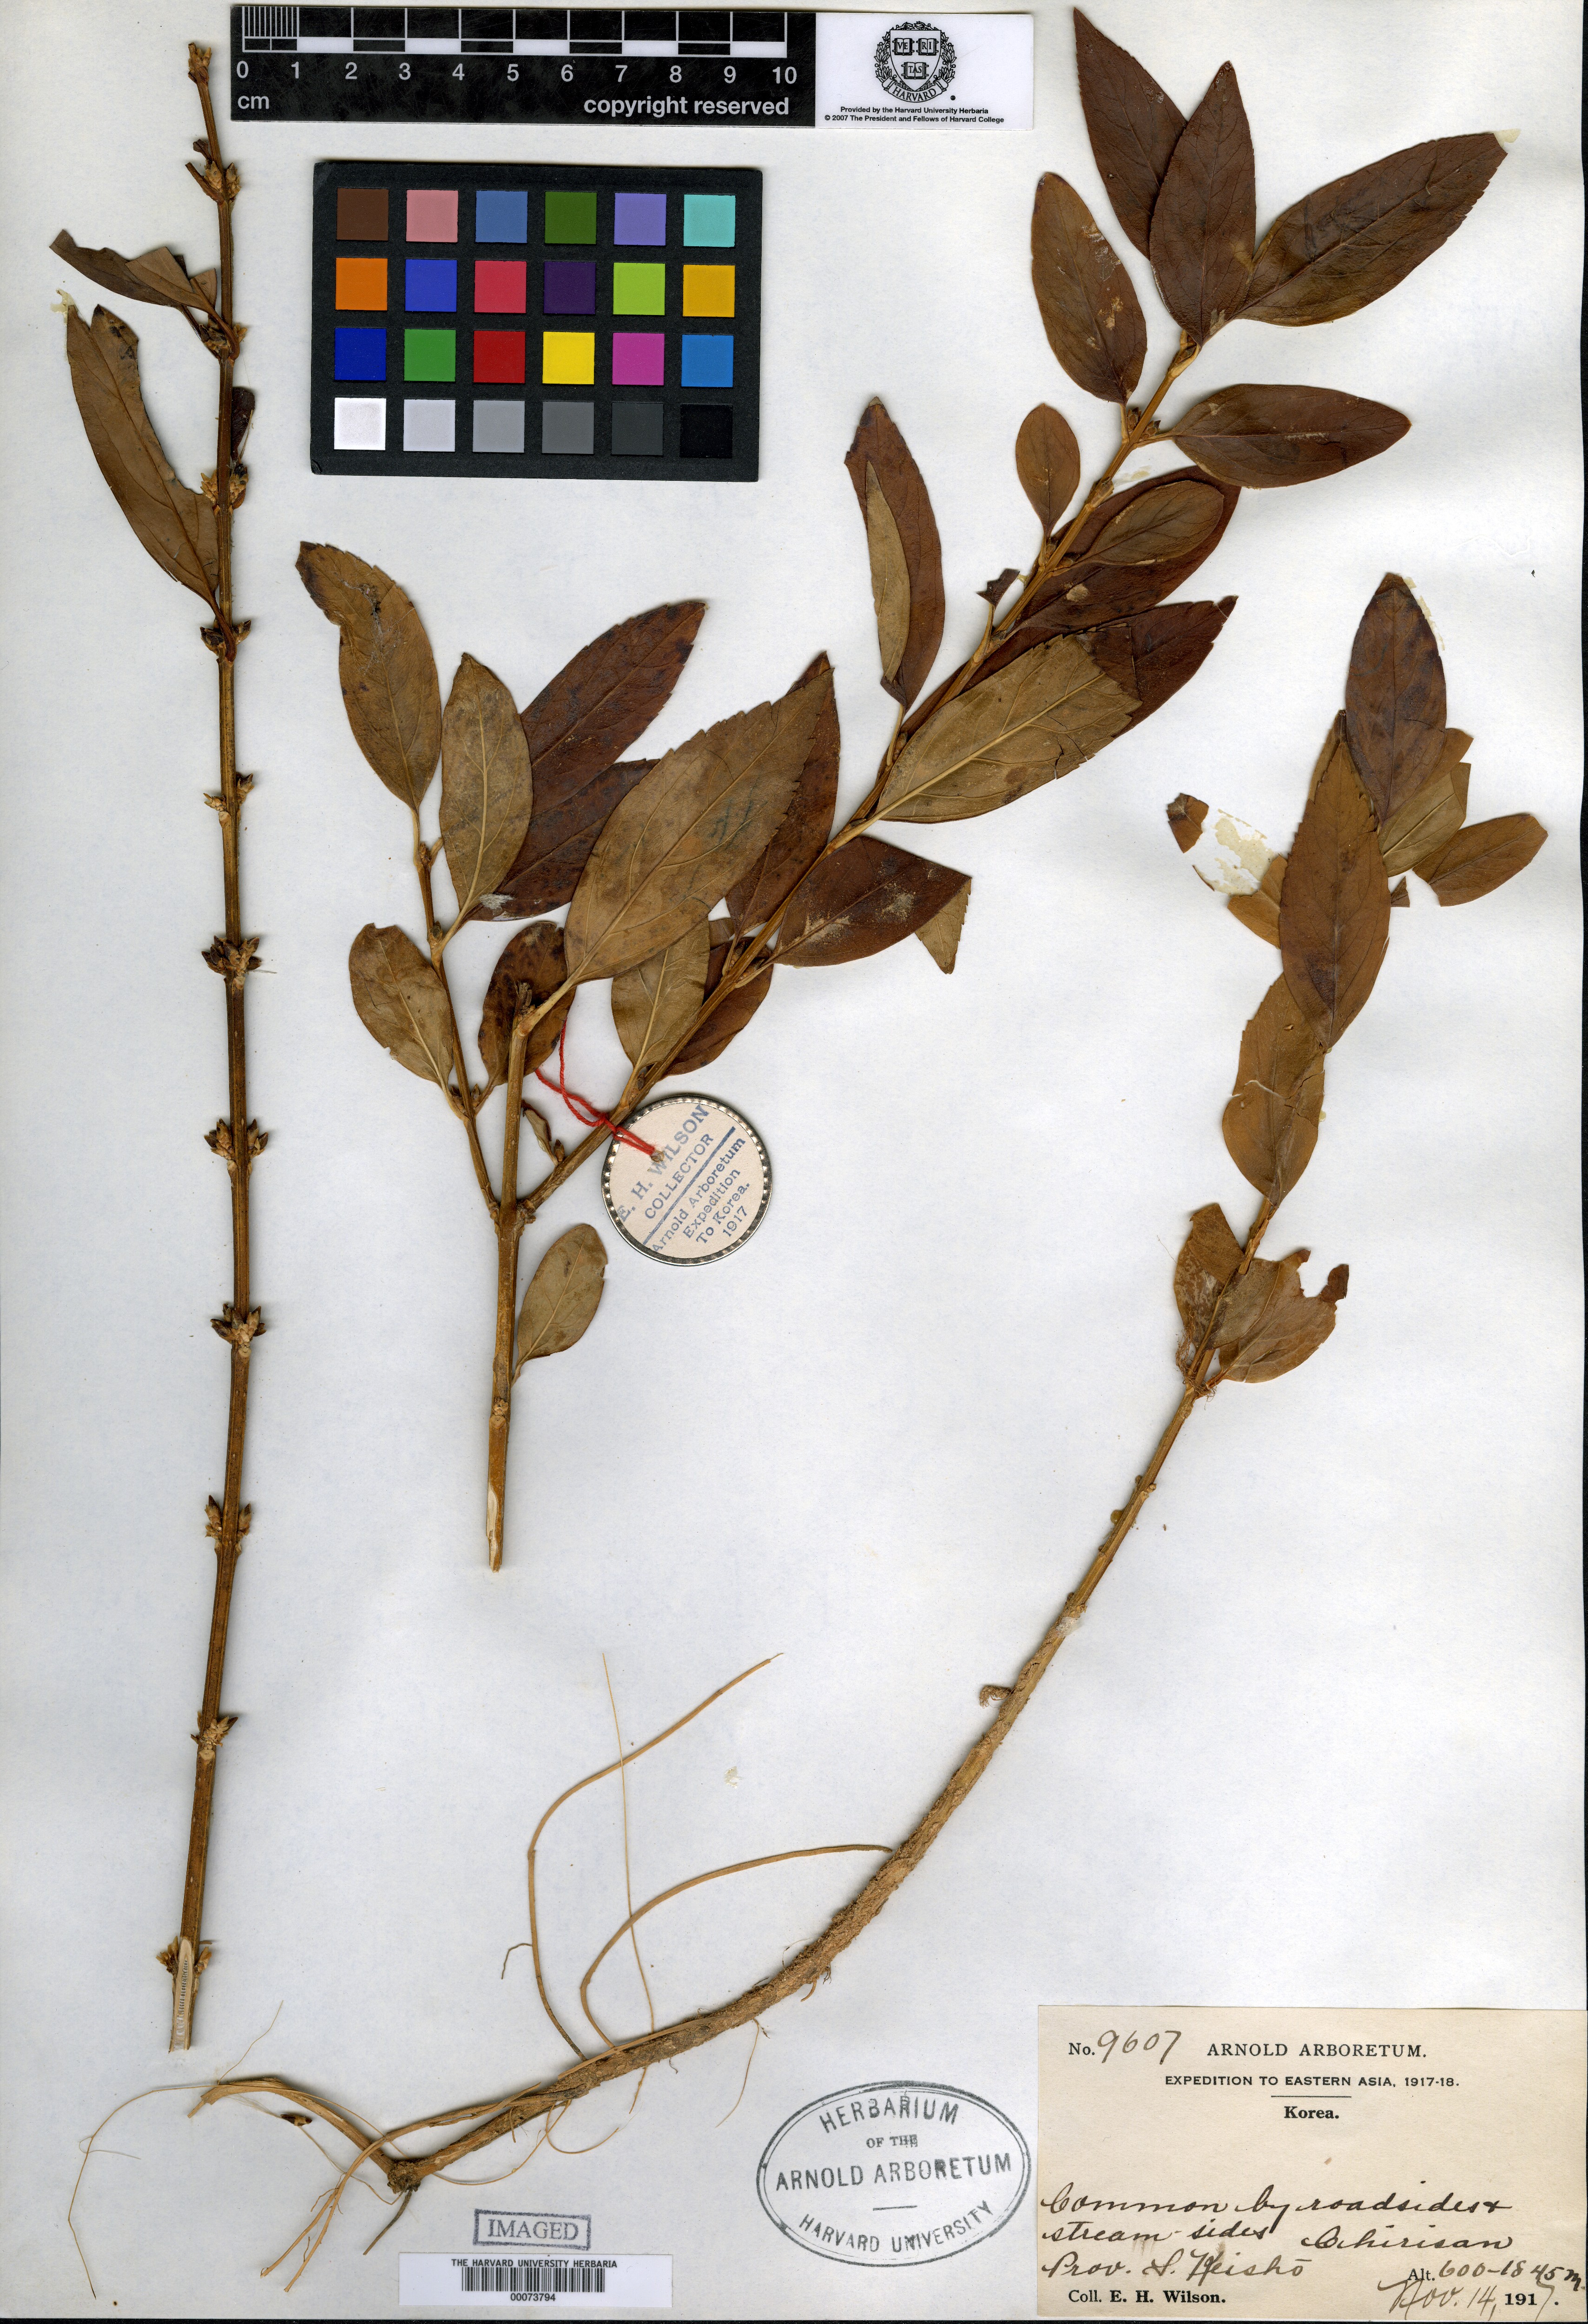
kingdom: Plantae
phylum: Tracheophyta
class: Magnoliopsida
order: Lamiales
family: Oleaceae
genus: Forsythia
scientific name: Forsythia koreana
